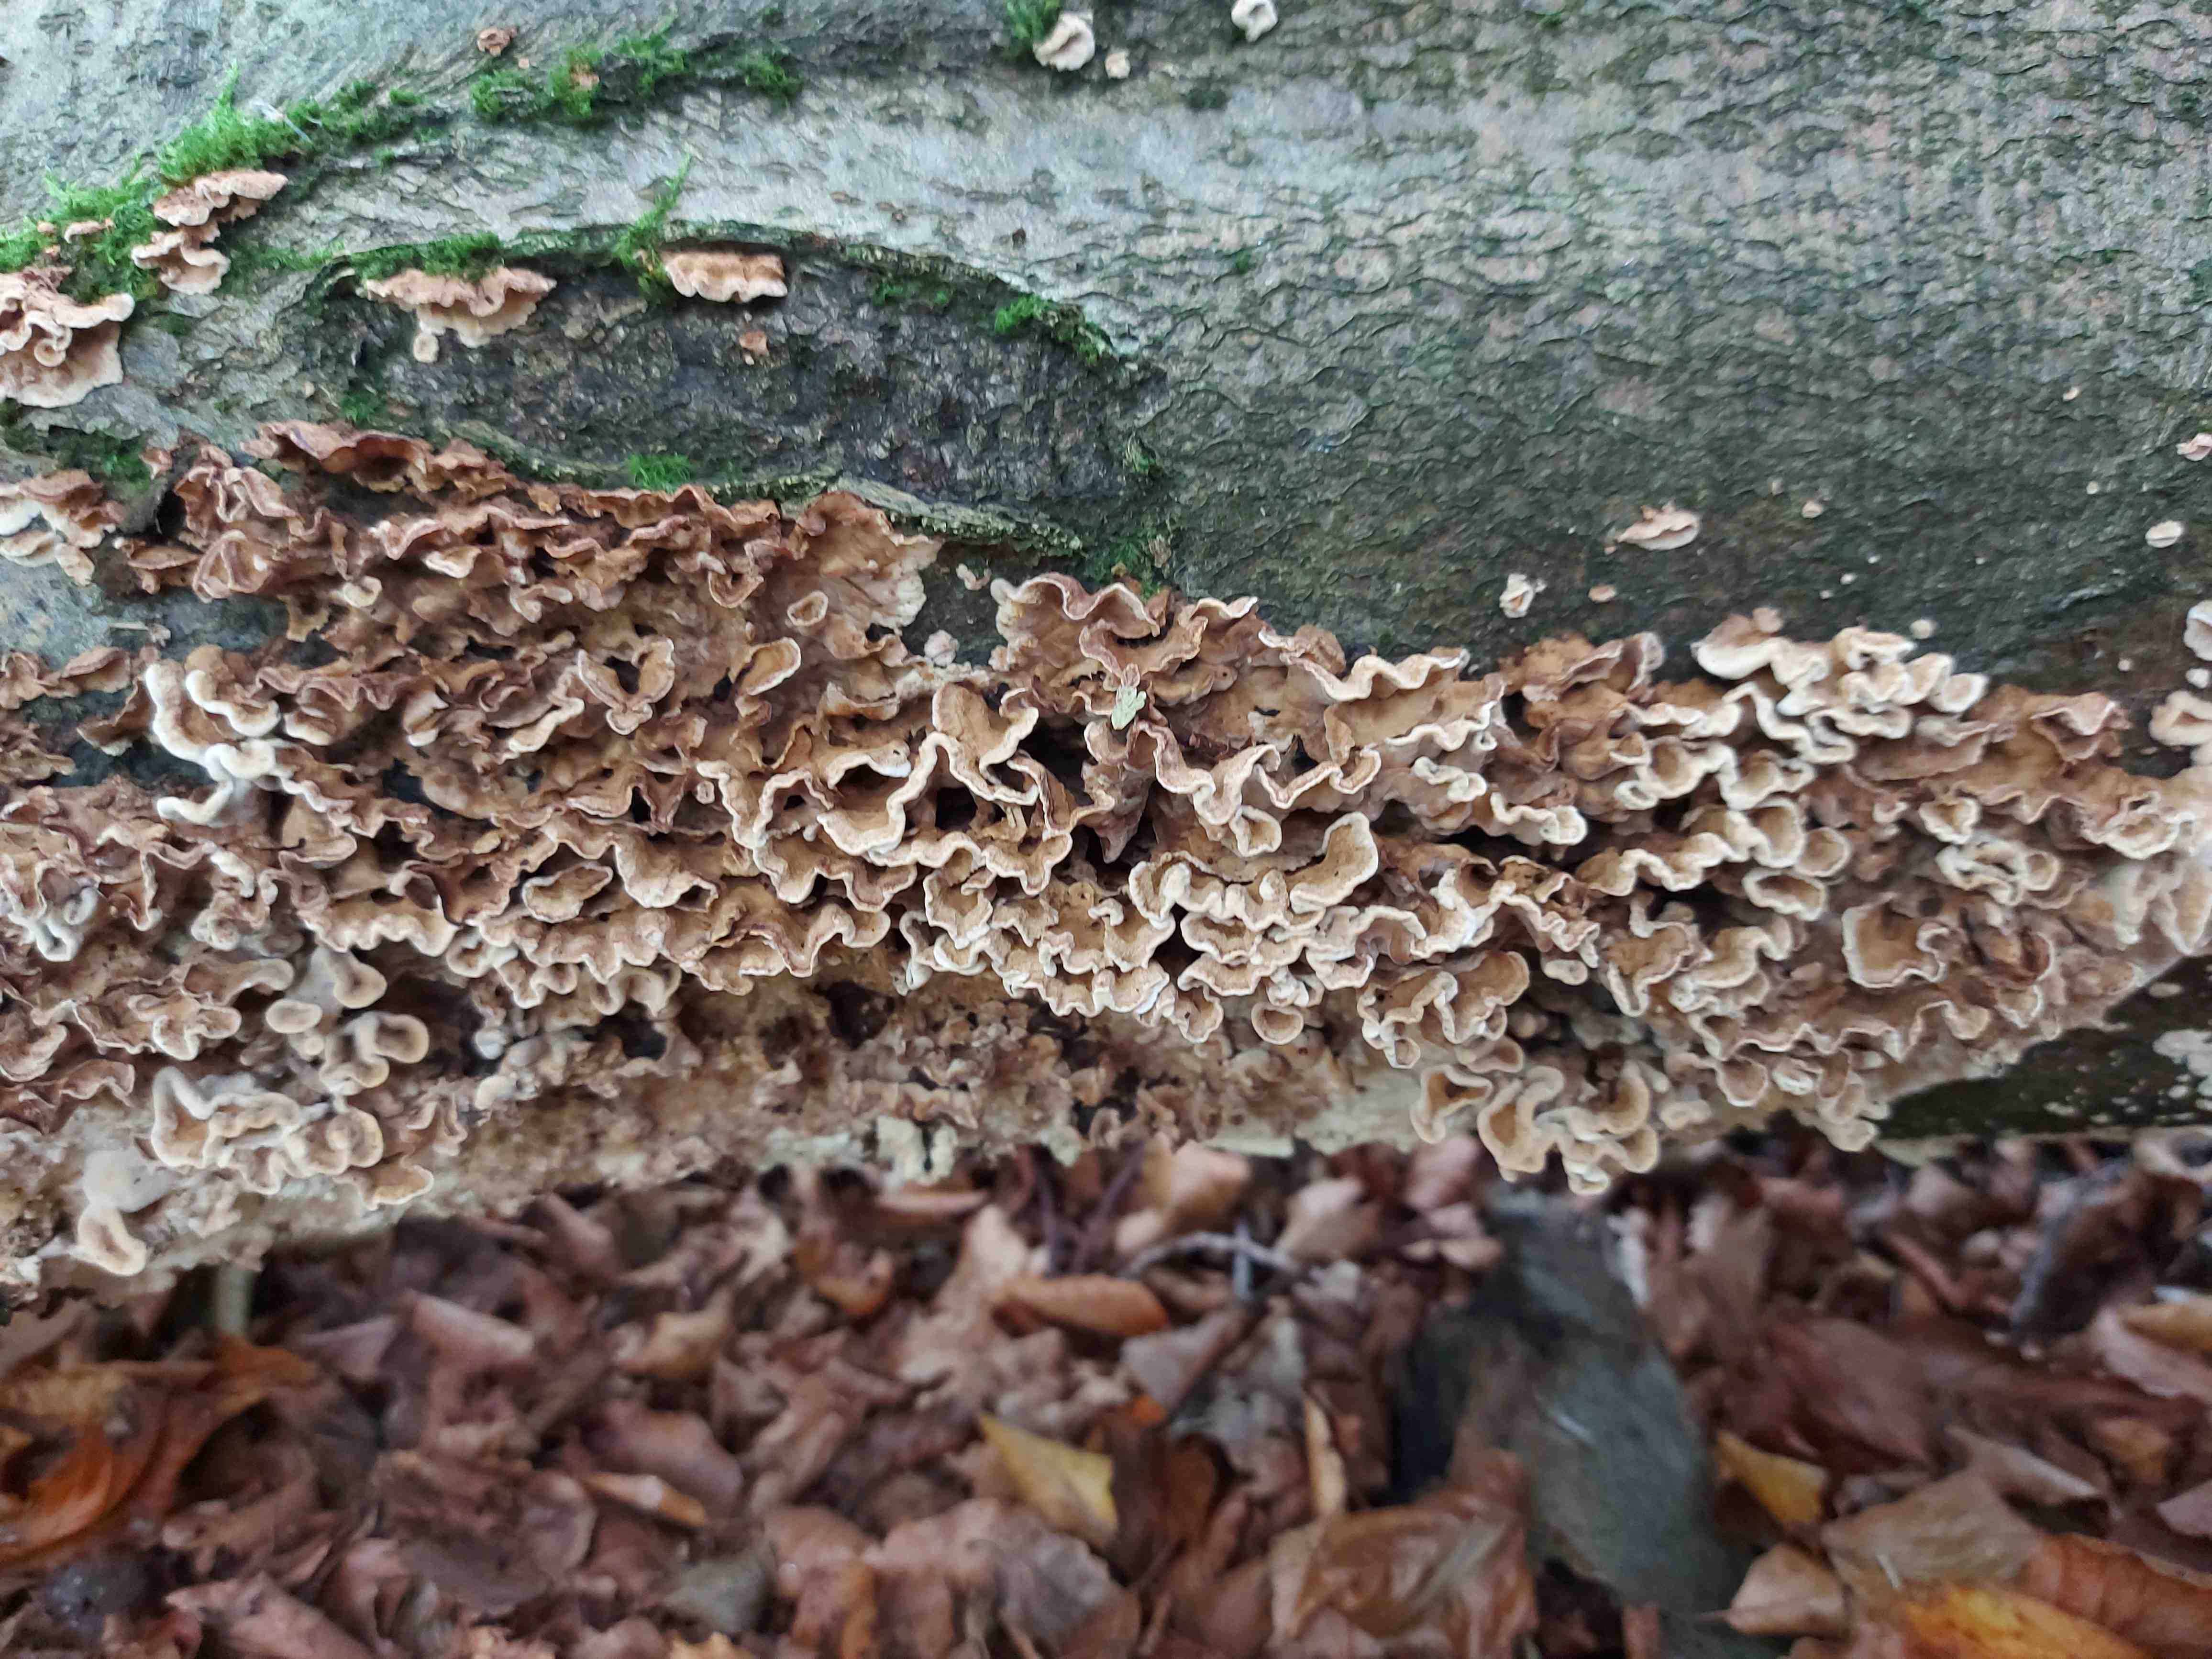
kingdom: Fungi
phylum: Basidiomycota
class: Agaricomycetes
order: Russulales
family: Hericiaceae
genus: Laxitextum
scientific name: Laxitextum bicolor
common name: tvefarvet filtskind
